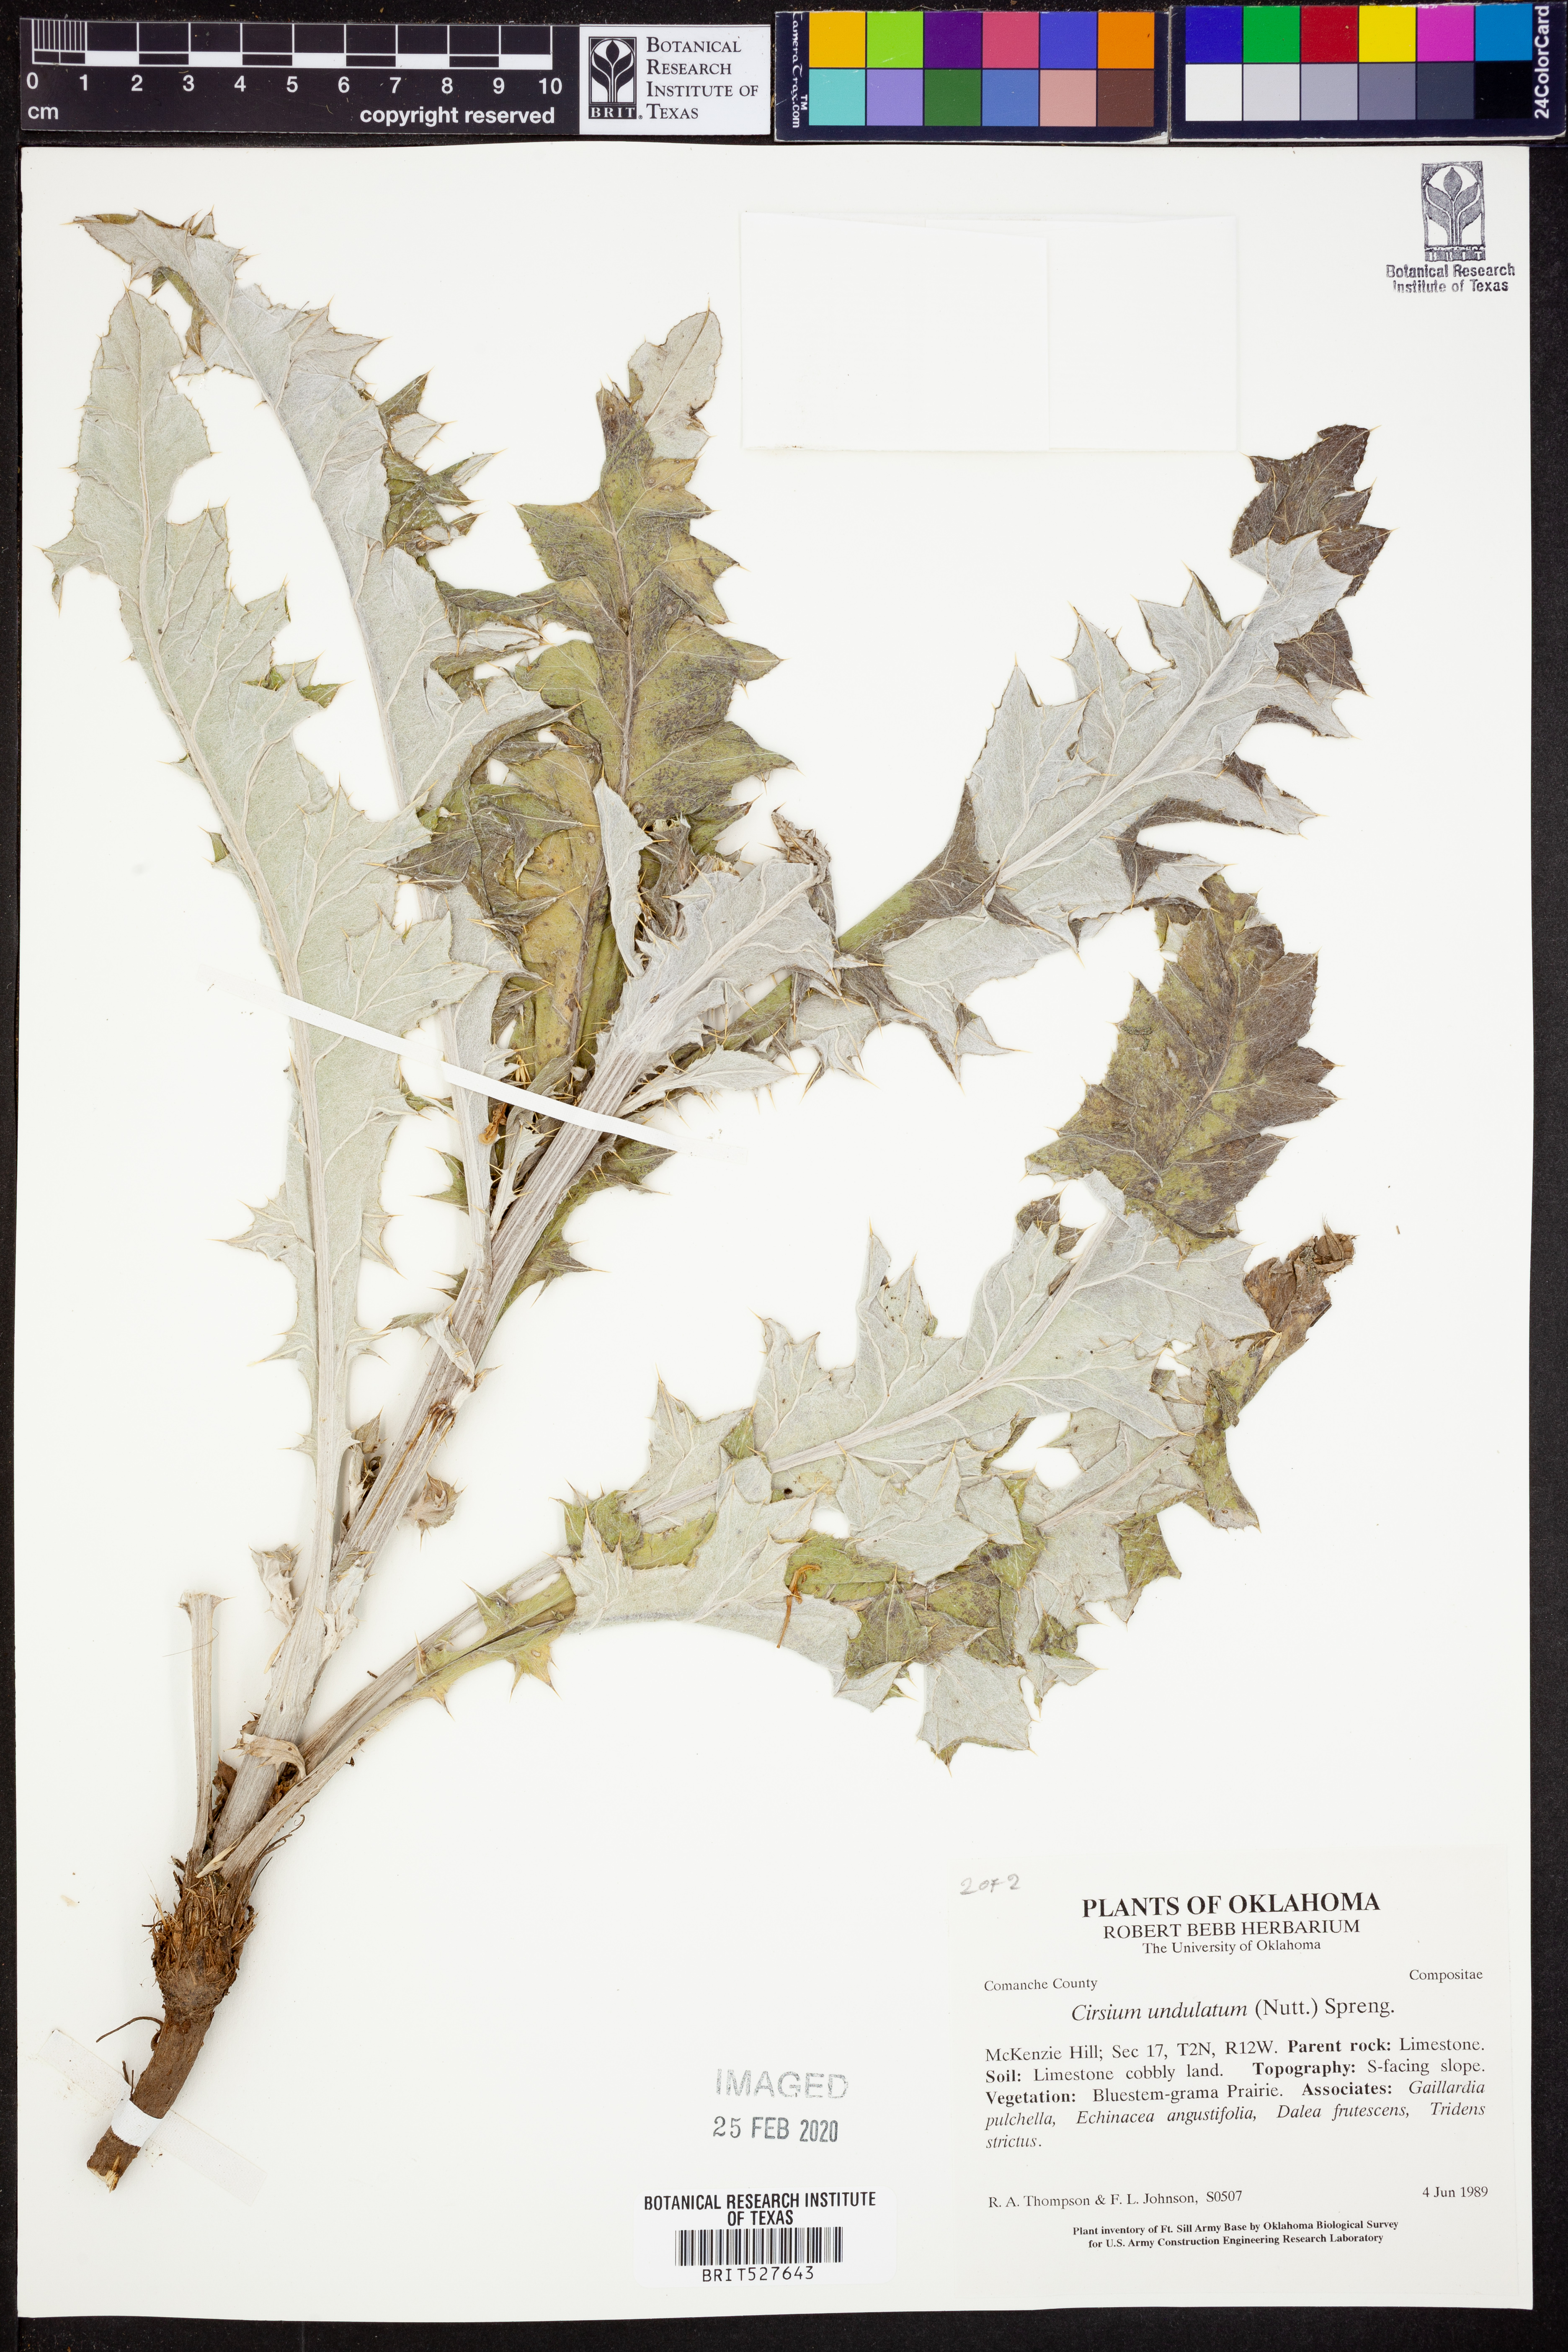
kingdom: Plantae
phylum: Tracheophyta
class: Magnoliopsida
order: Asterales
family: Asteraceae
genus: Cirsium
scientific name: Cirsium undulatum
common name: Pasture thistle
